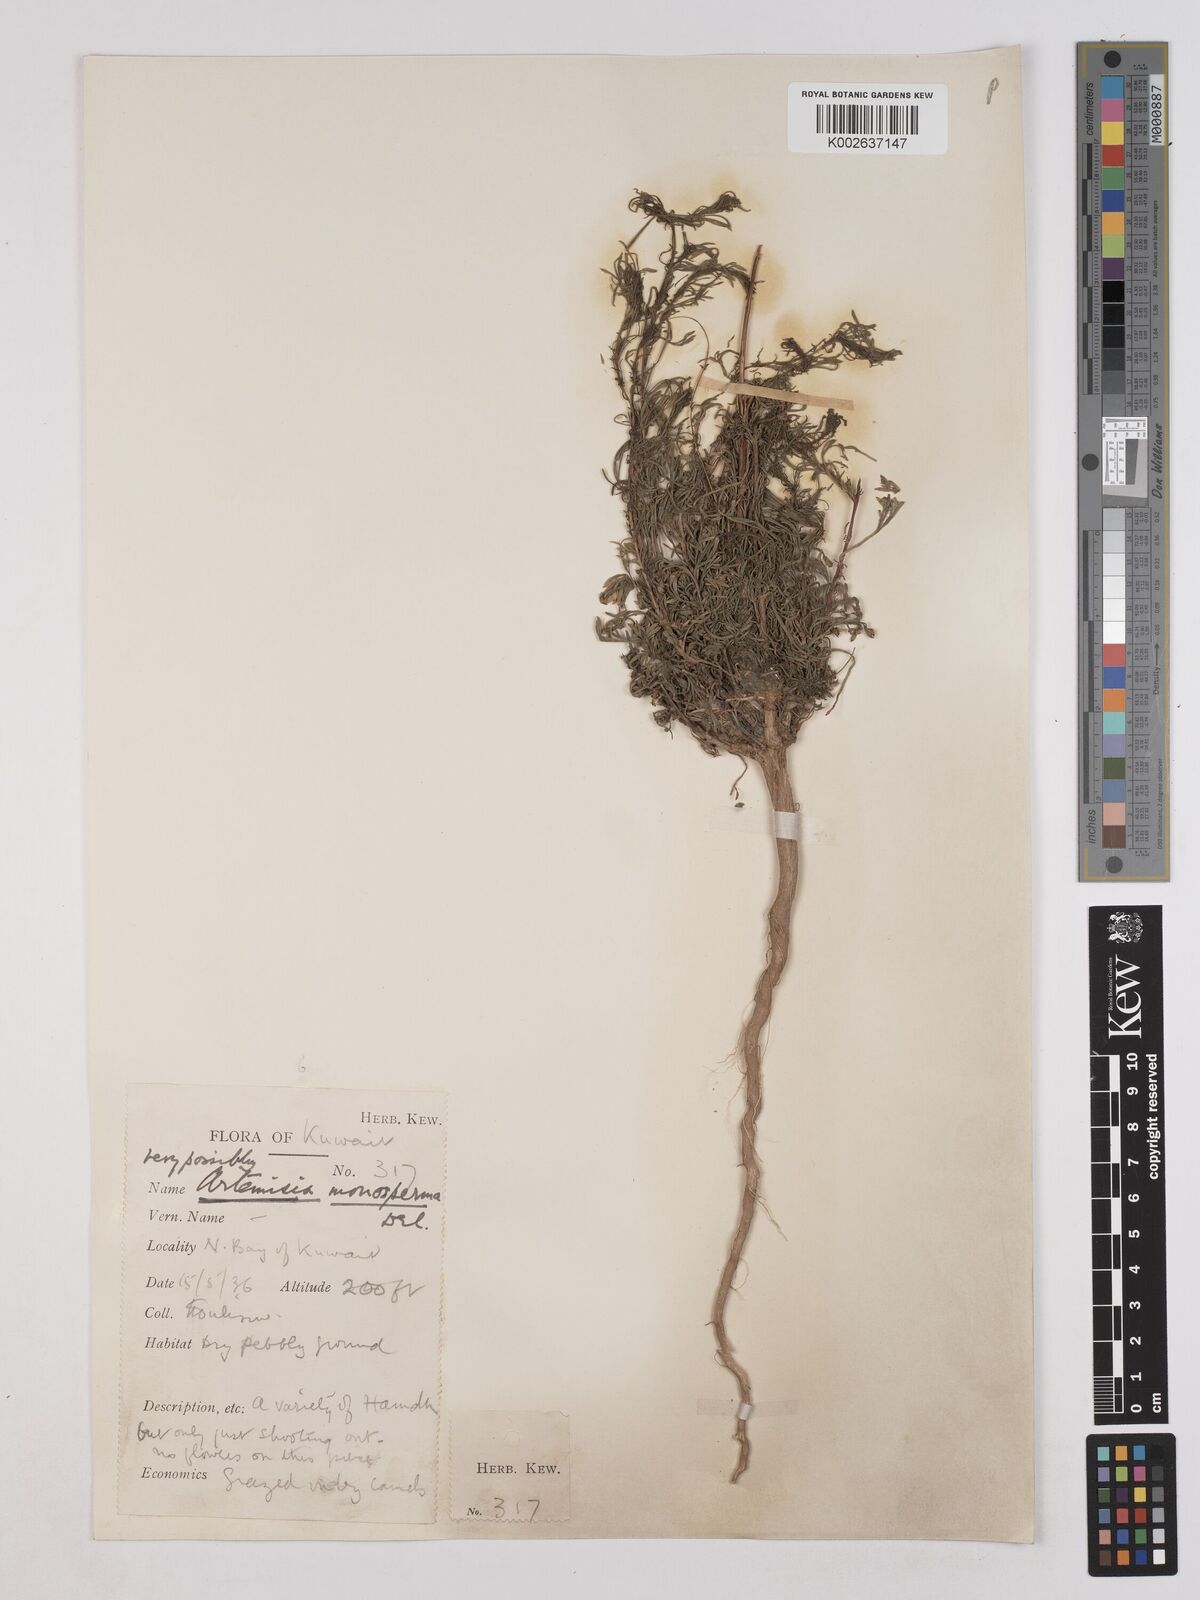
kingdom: Plantae
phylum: Tracheophyta
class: Magnoliopsida
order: Asterales
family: Asteraceae
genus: Artemisia
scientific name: Artemisia monosperma
